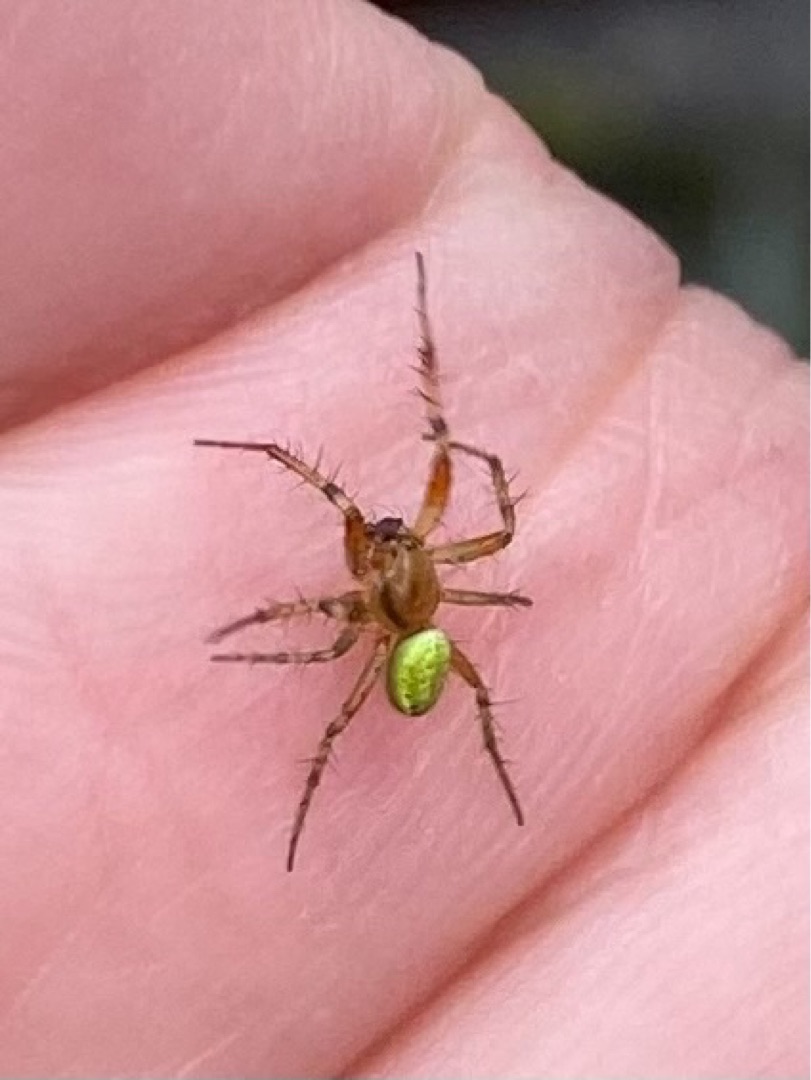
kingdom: Animalia
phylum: Arthropoda
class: Arachnida
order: Araneae
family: Araneidae
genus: Araniella
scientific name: Araniella
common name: Agurkeedderkopslægten
